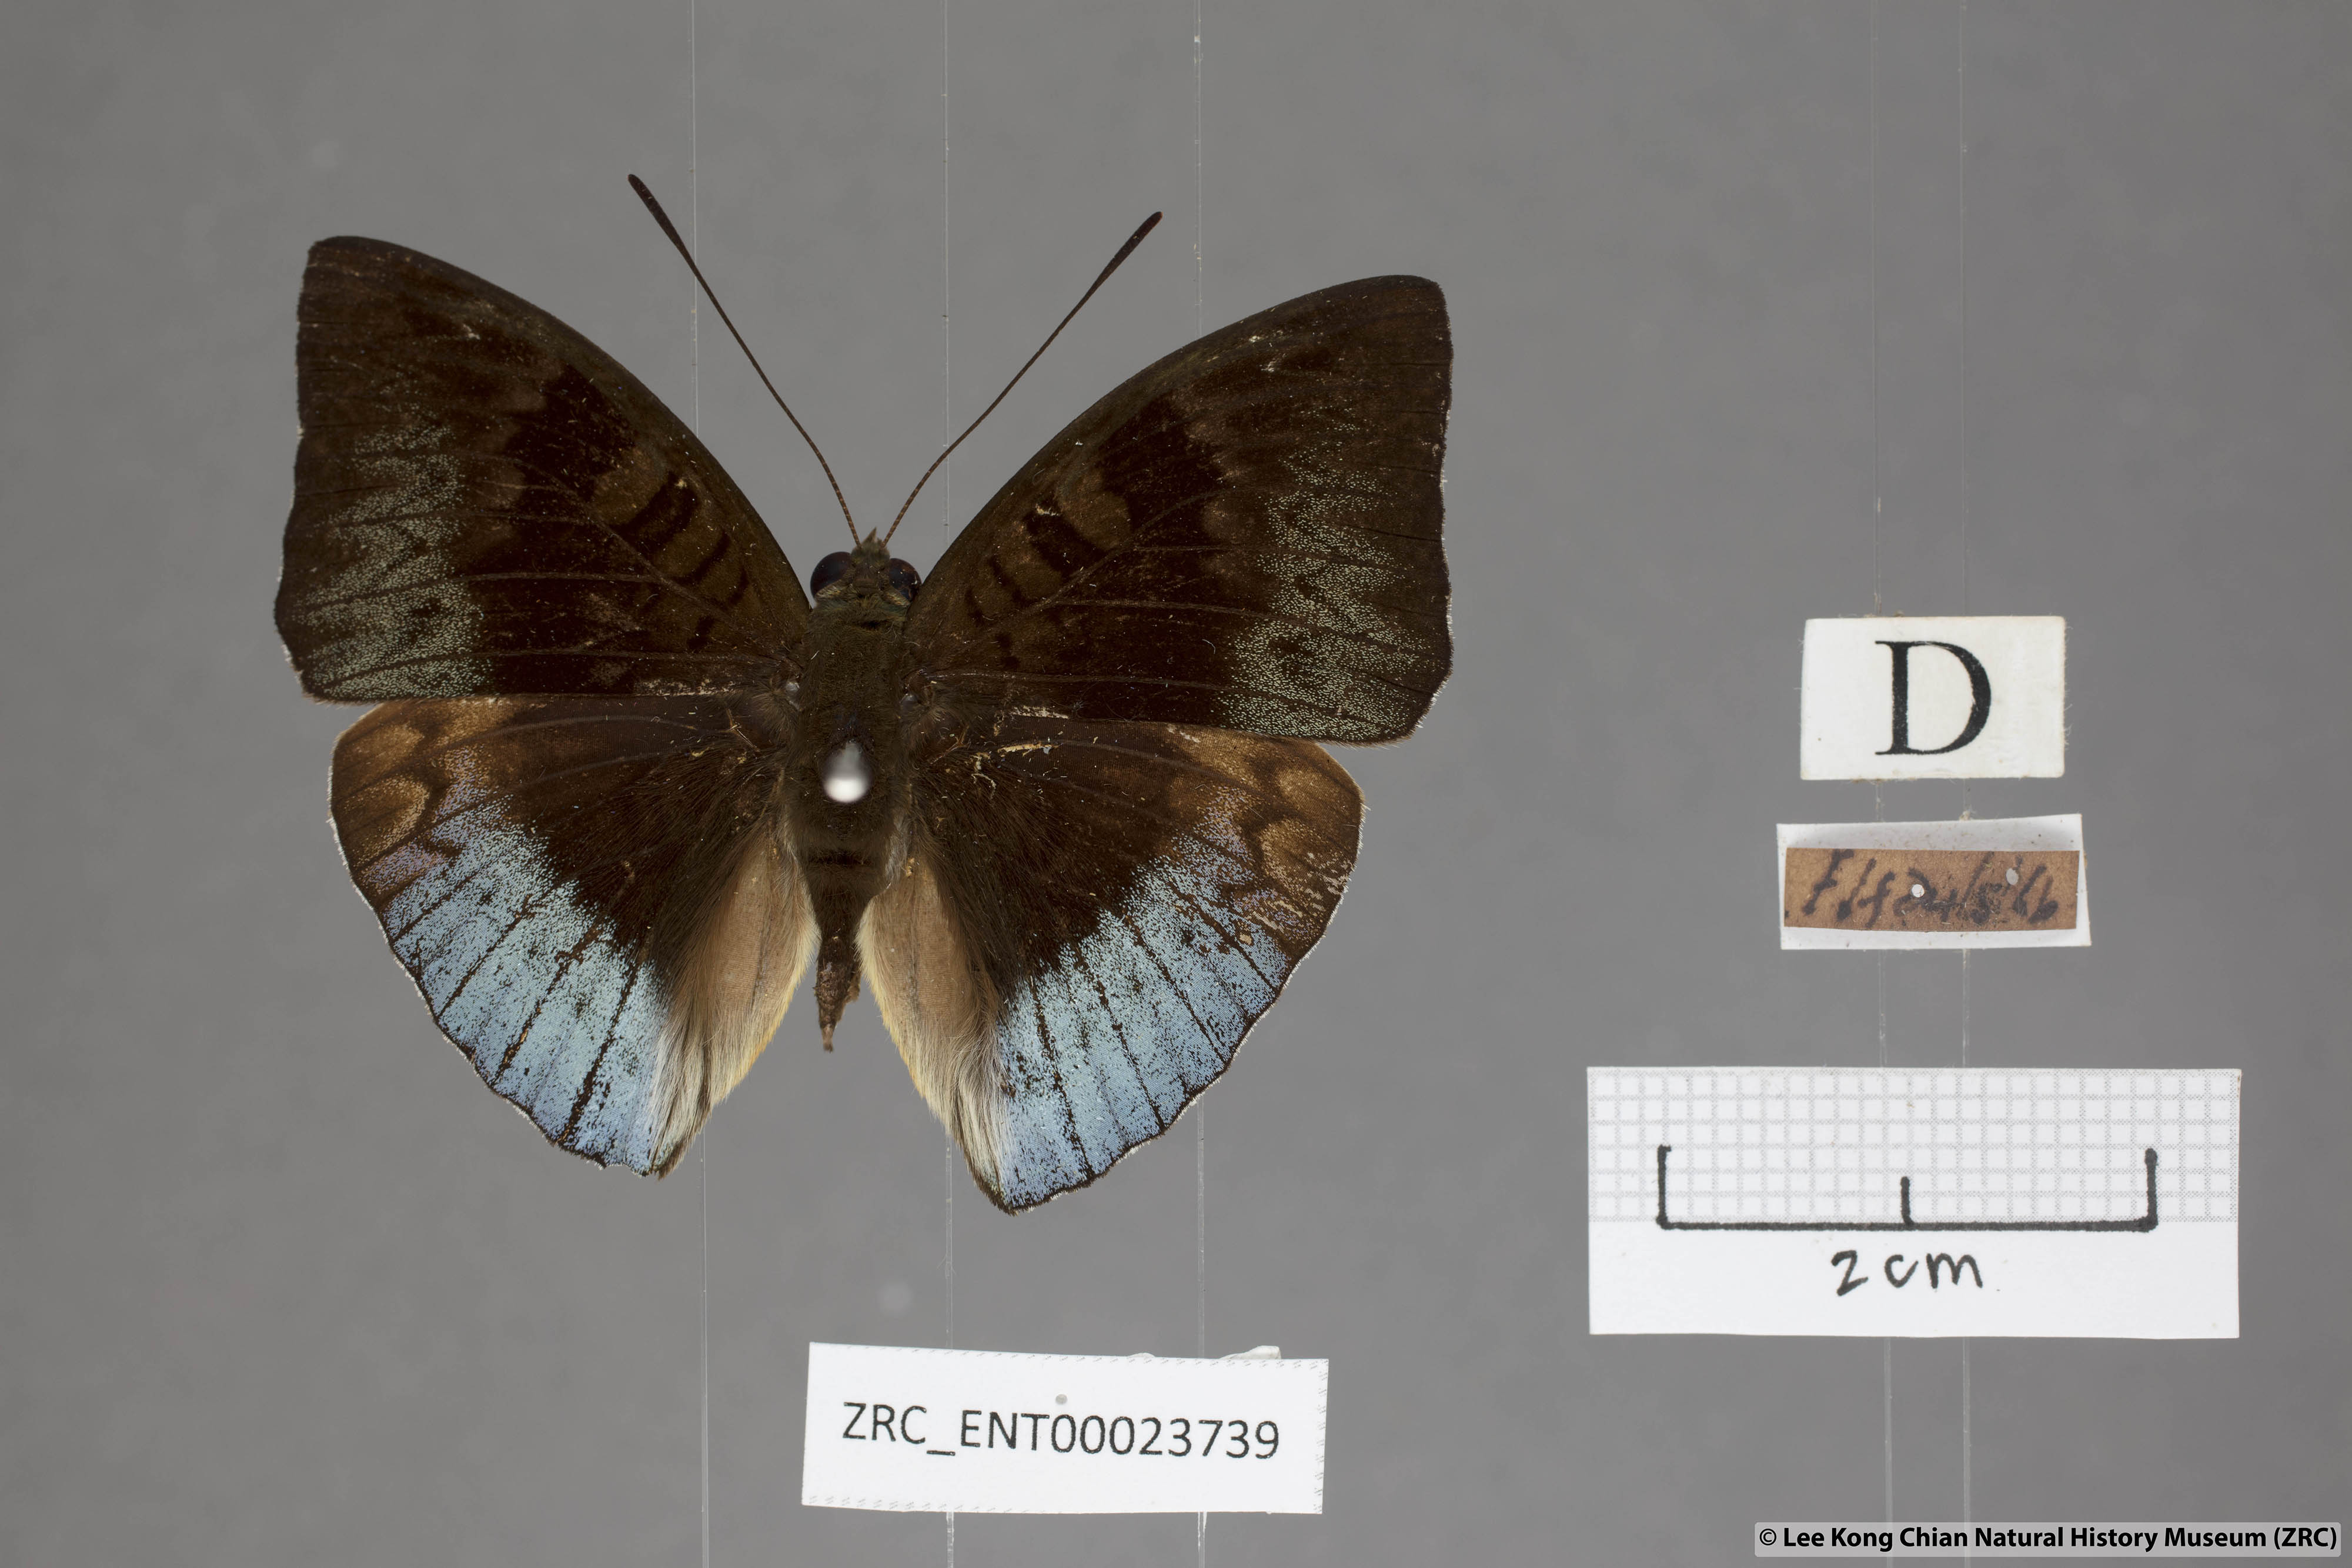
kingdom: Animalia
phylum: Arthropoda
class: Insecta
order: Lepidoptera
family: Nymphalidae
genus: Euthalia
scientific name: Euthalia monina
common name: Powdered baron
